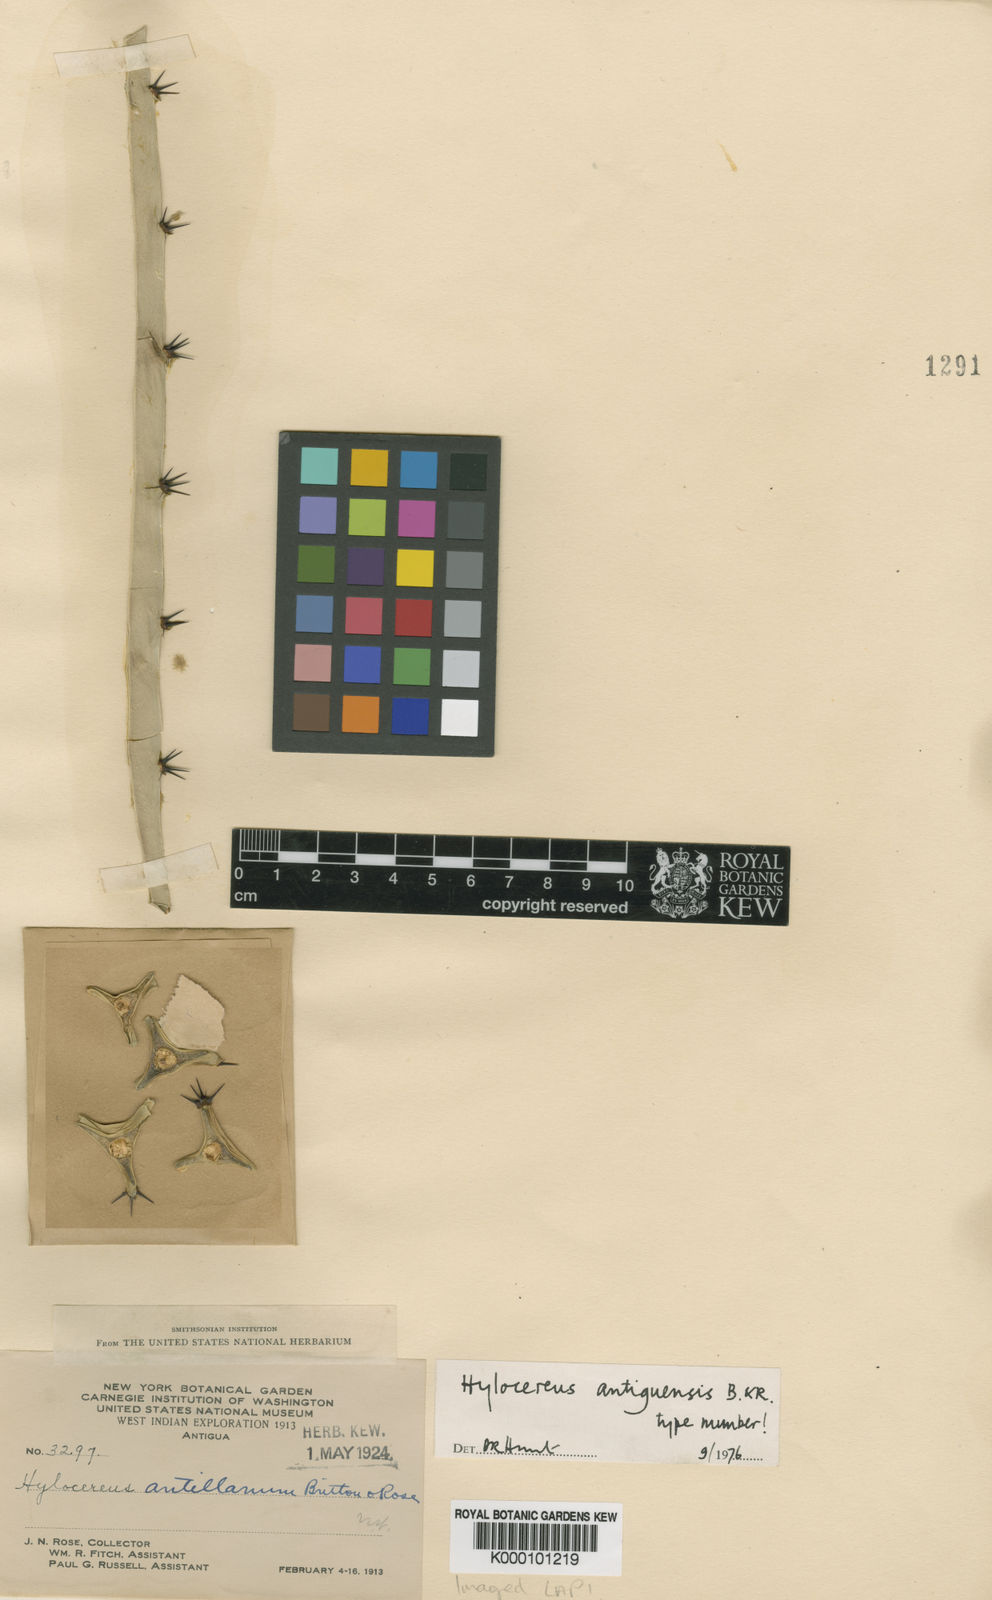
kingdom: Plantae
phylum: Tracheophyta
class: Magnoliopsida
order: Caryophyllales
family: Cactaceae
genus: Selenicereus
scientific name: Selenicereus triangularis
